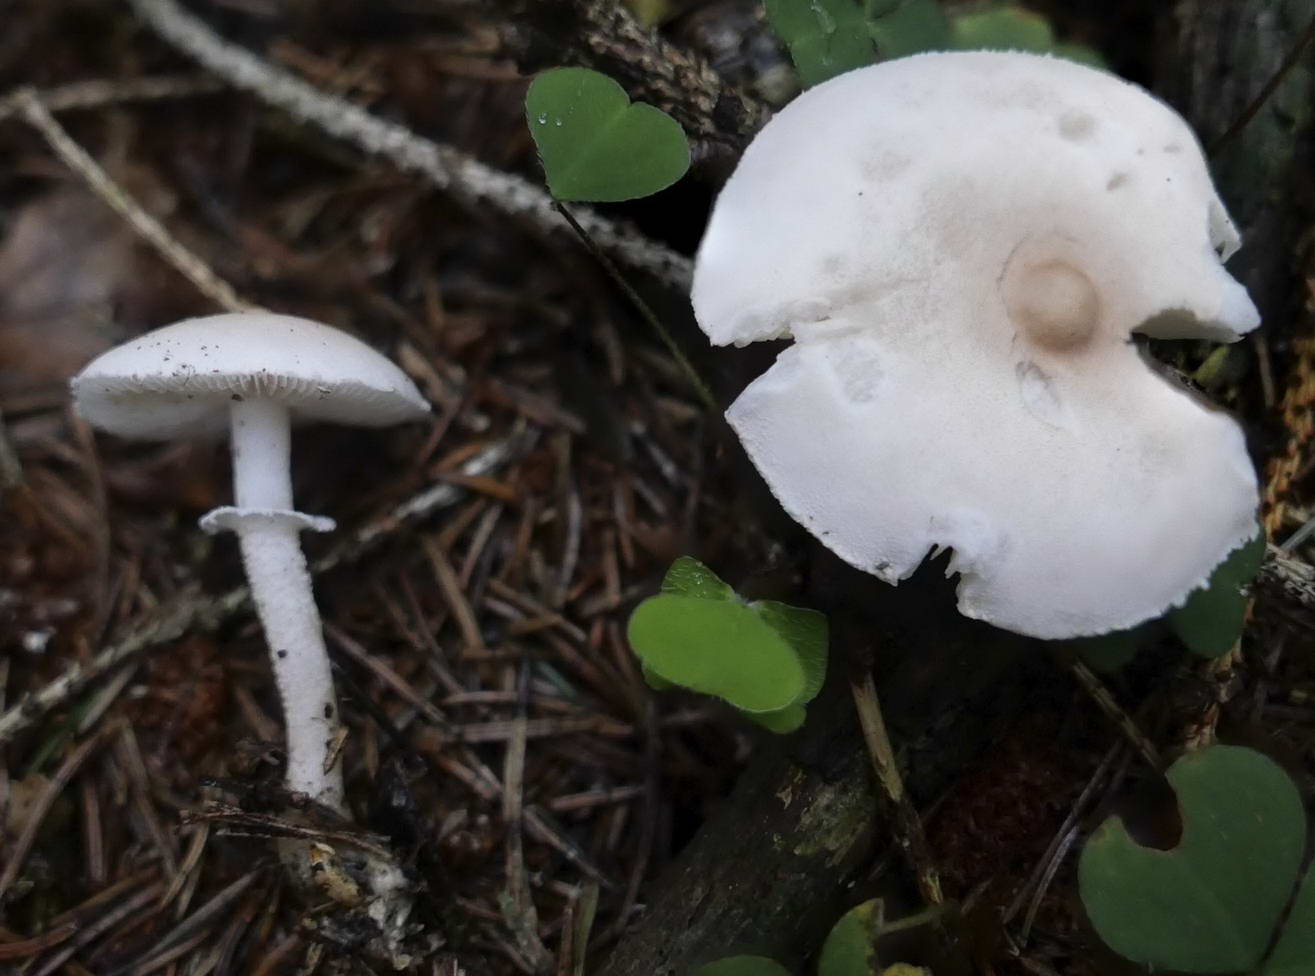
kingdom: Fungi
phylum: Basidiomycota
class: Agaricomycetes
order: Agaricales
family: Tricholomataceae
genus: Cystoderma
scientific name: Cystoderma carcharias
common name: rødgrå grynhat
